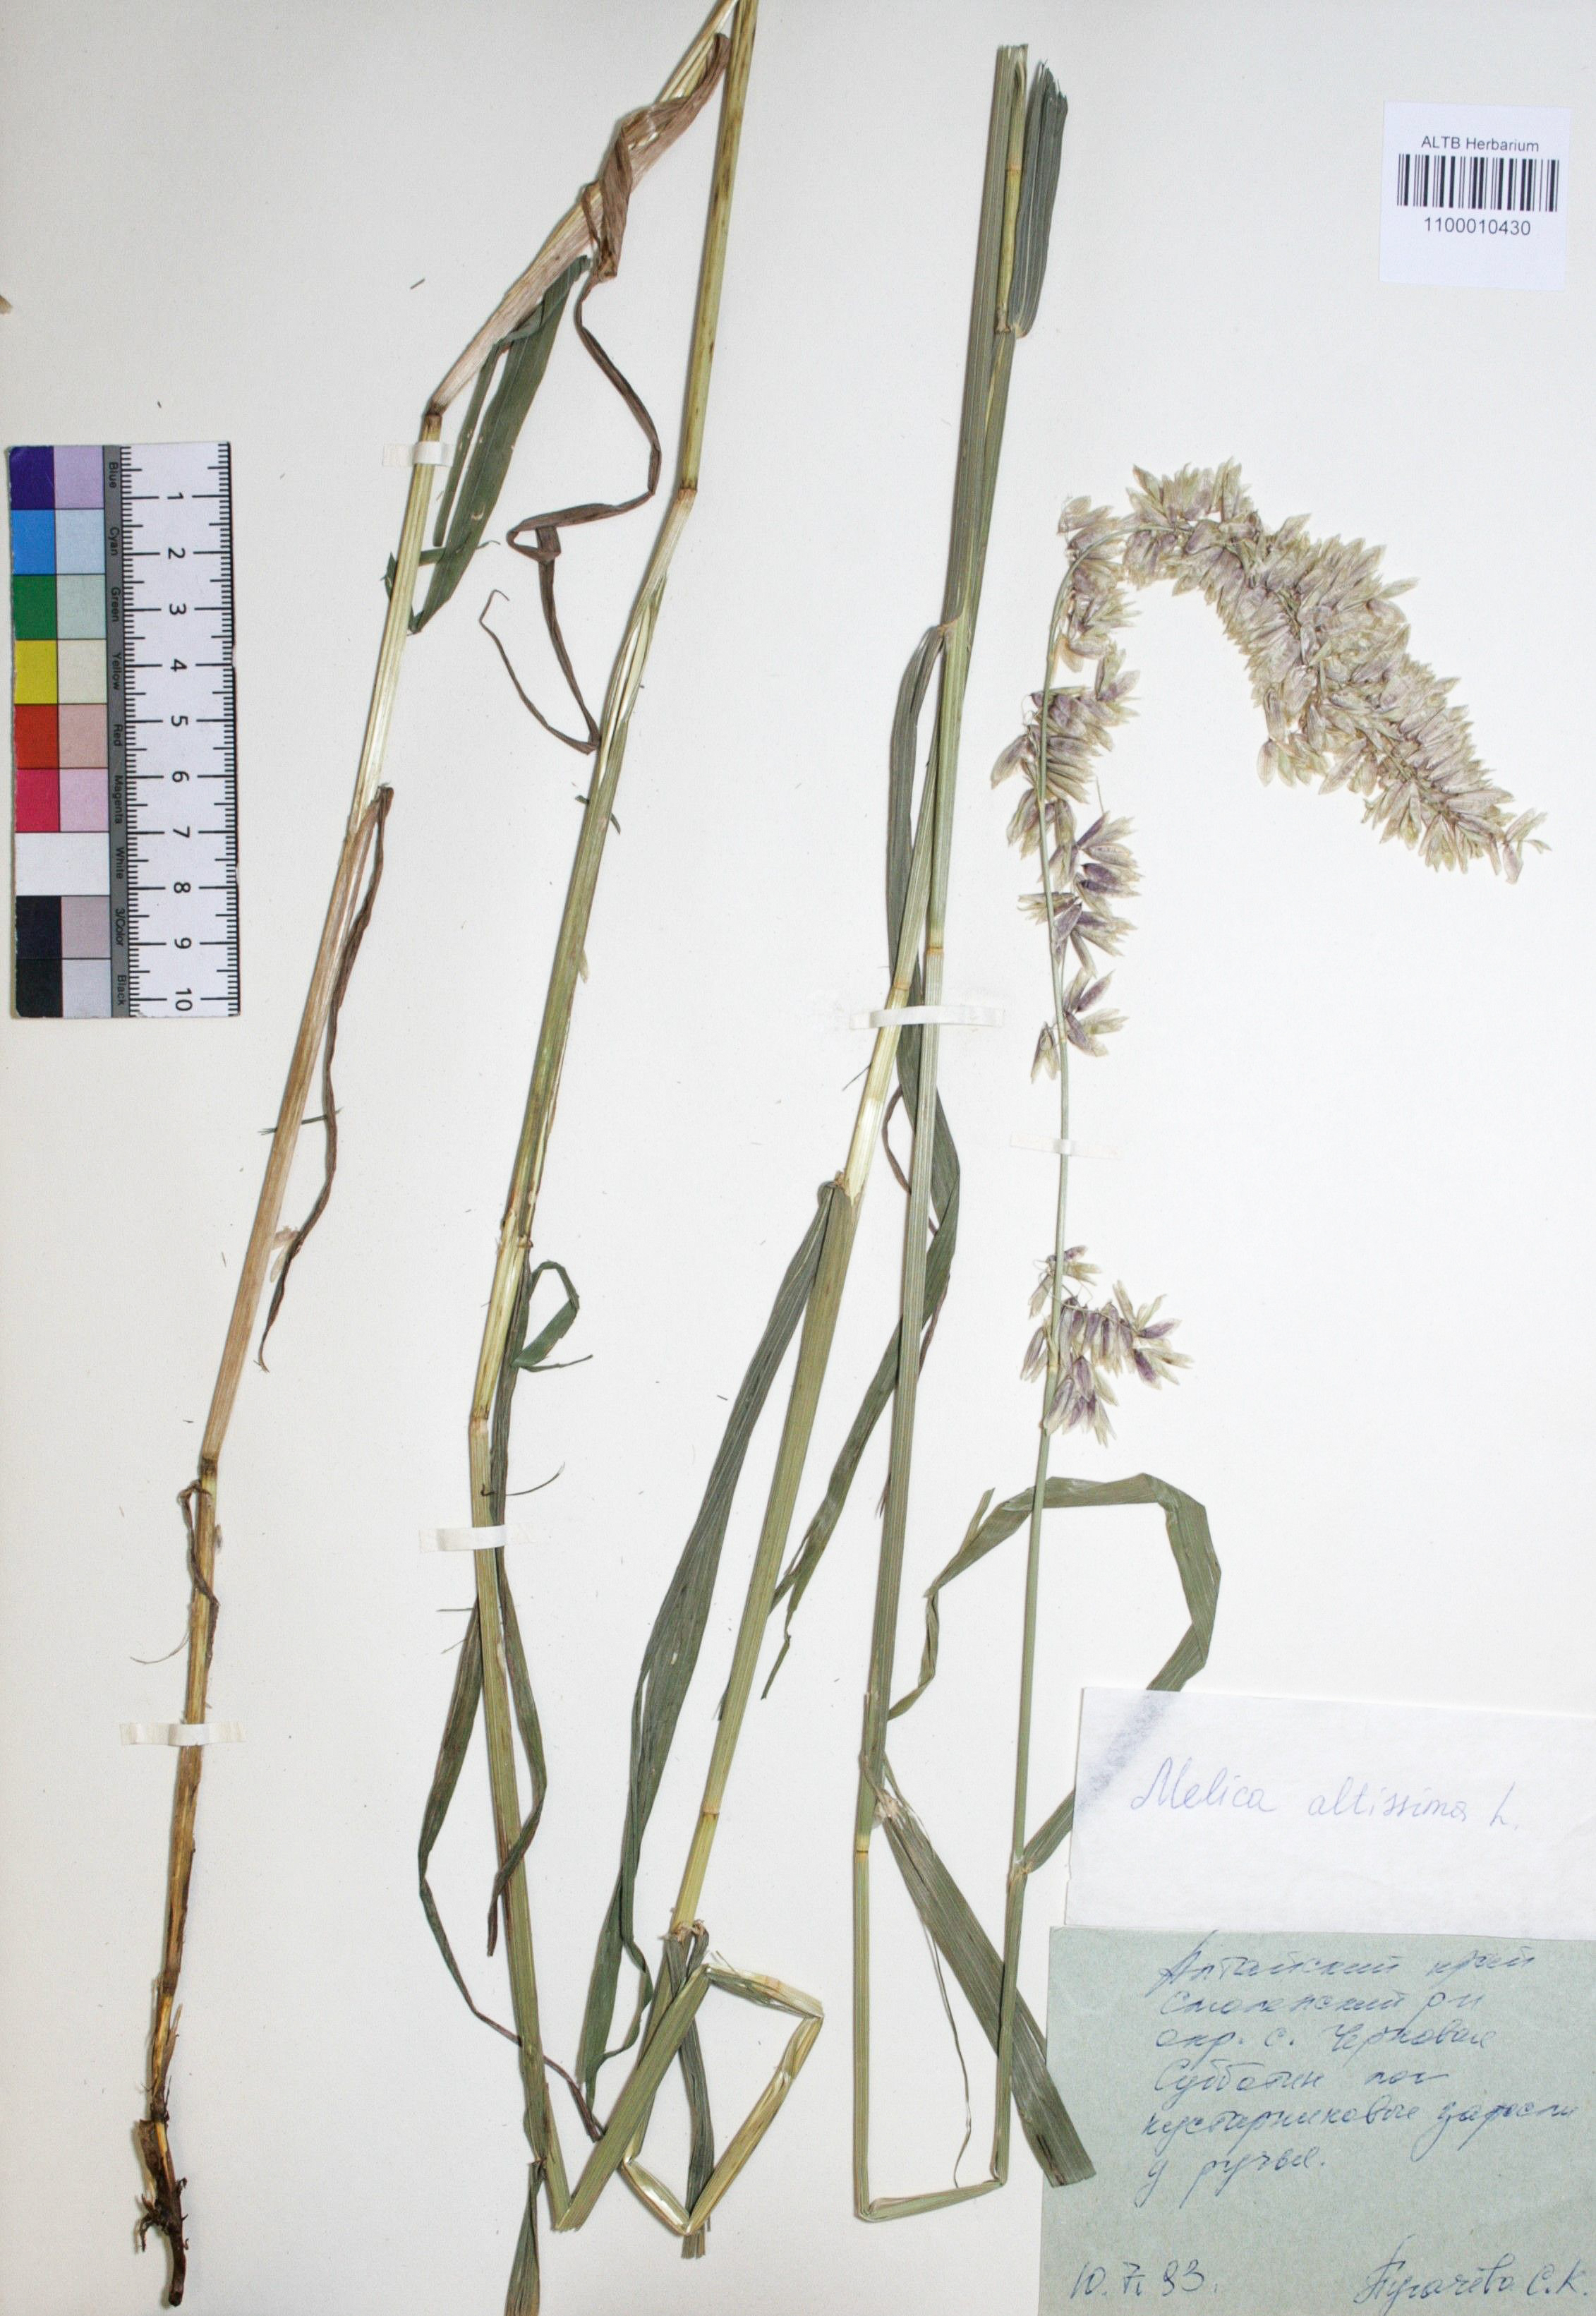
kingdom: Plantae
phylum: Tracheophyta
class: Liliopsida
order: Poales
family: Poaceae
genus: Melica
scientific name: Melica altissima
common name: Siberian melicgrass
